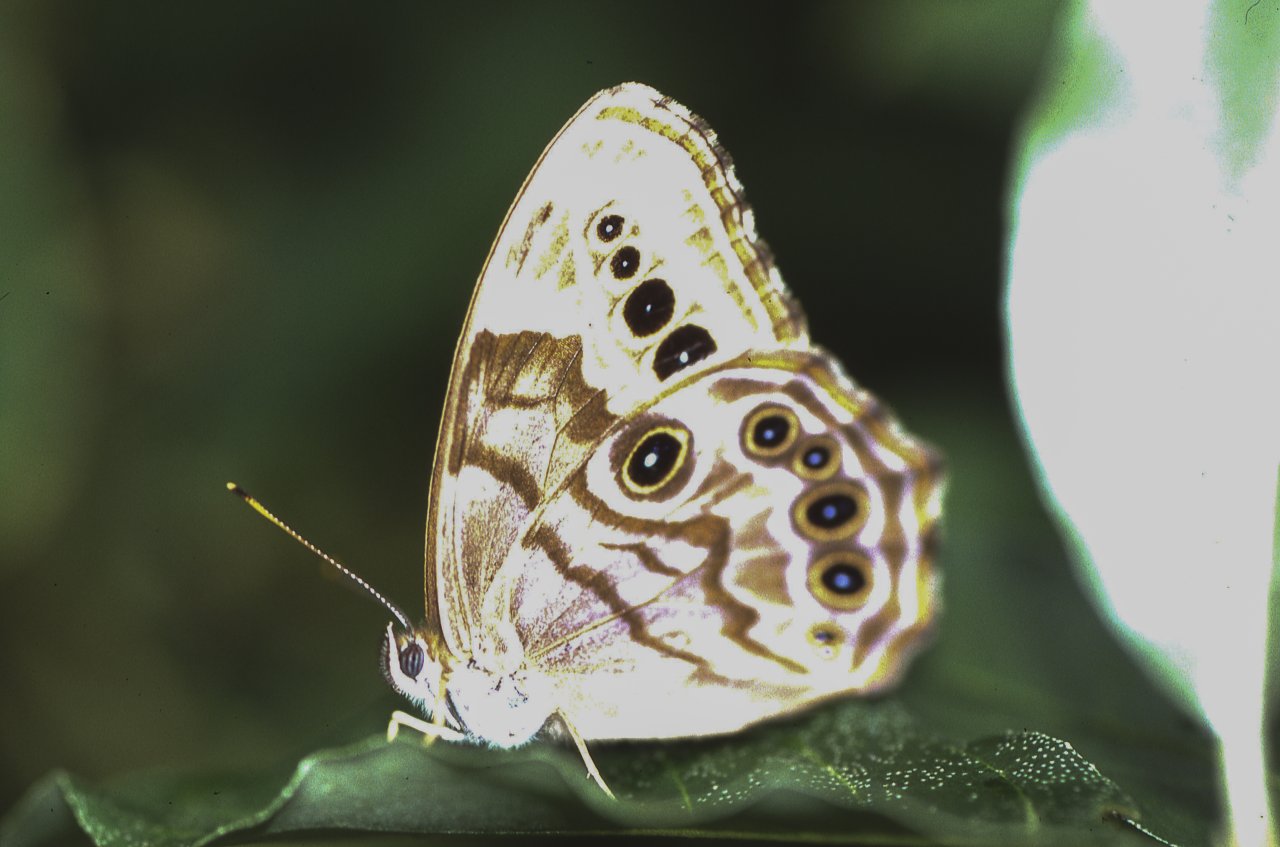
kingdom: Animalia
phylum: Arthropoda
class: Insecta
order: Lepidoptera
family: Nymphalidae
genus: Lethe
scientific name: Lethe anthedon
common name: Northern Pearly-Eye
